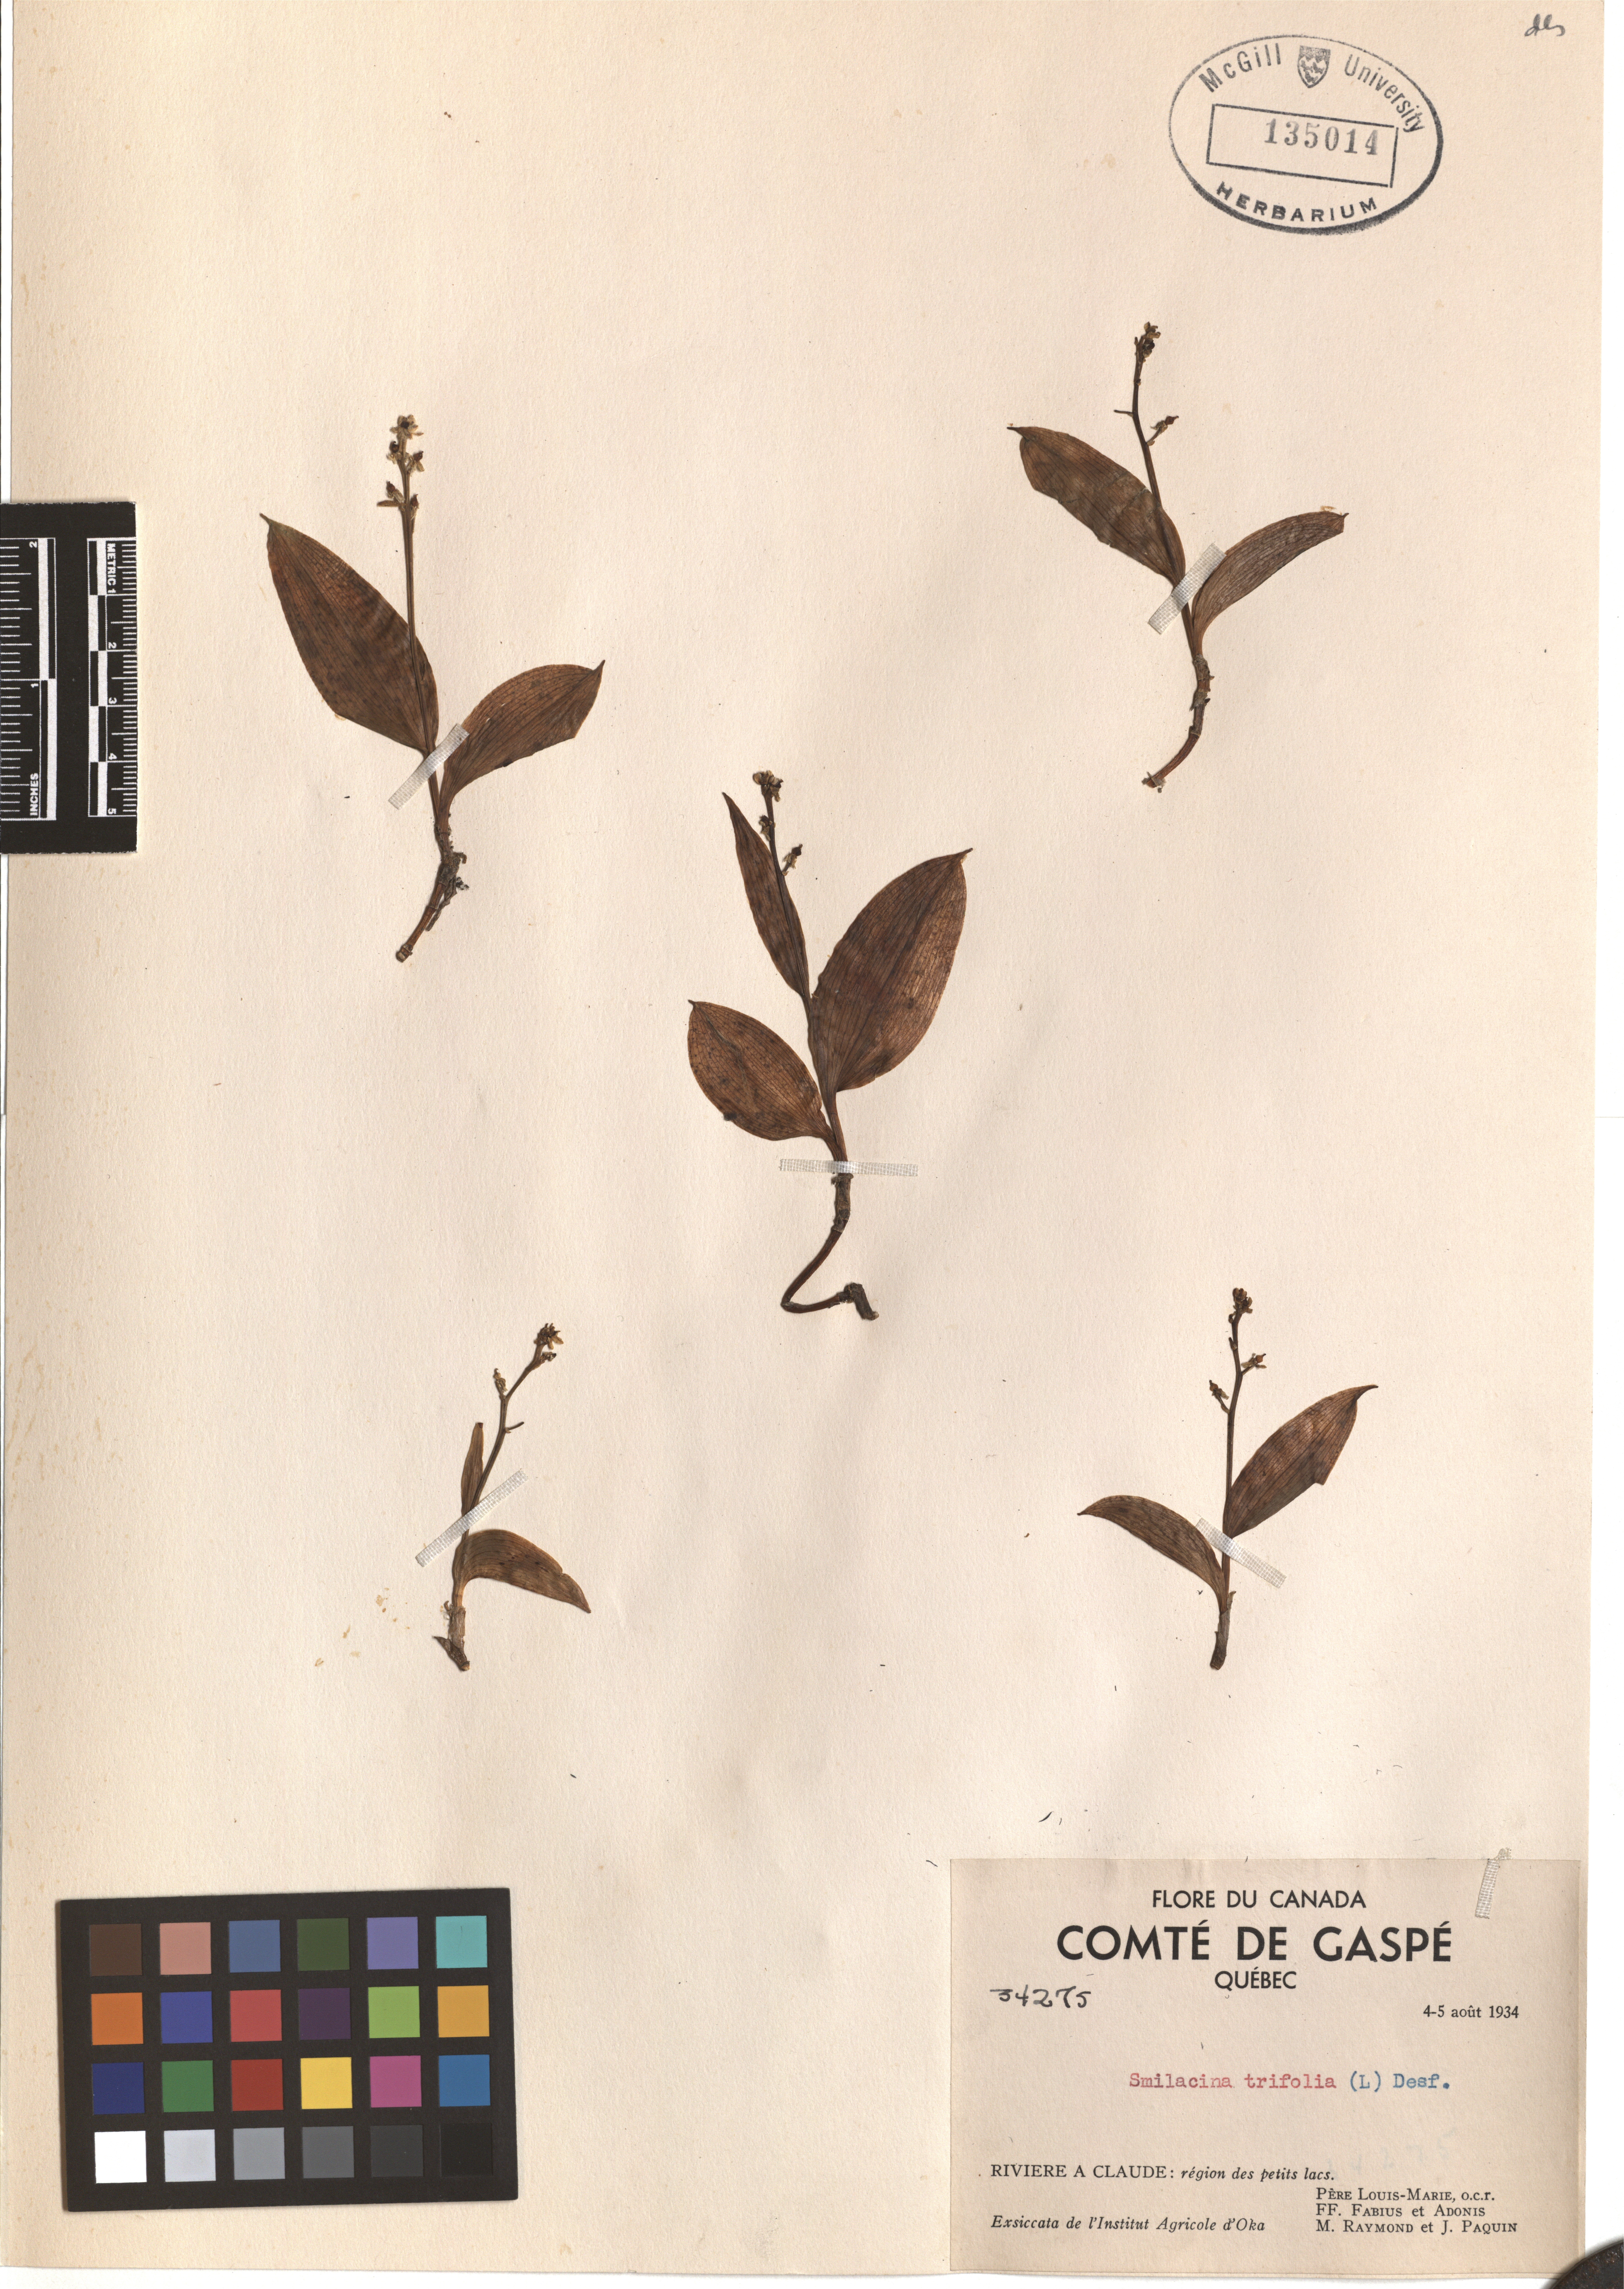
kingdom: Plantae
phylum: Tracheophyta
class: Liliopsida
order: Asparagales
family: Asparagaceae
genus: Maianthemum
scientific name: Maianthemum trifolium
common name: Swamp false solomon's seal
